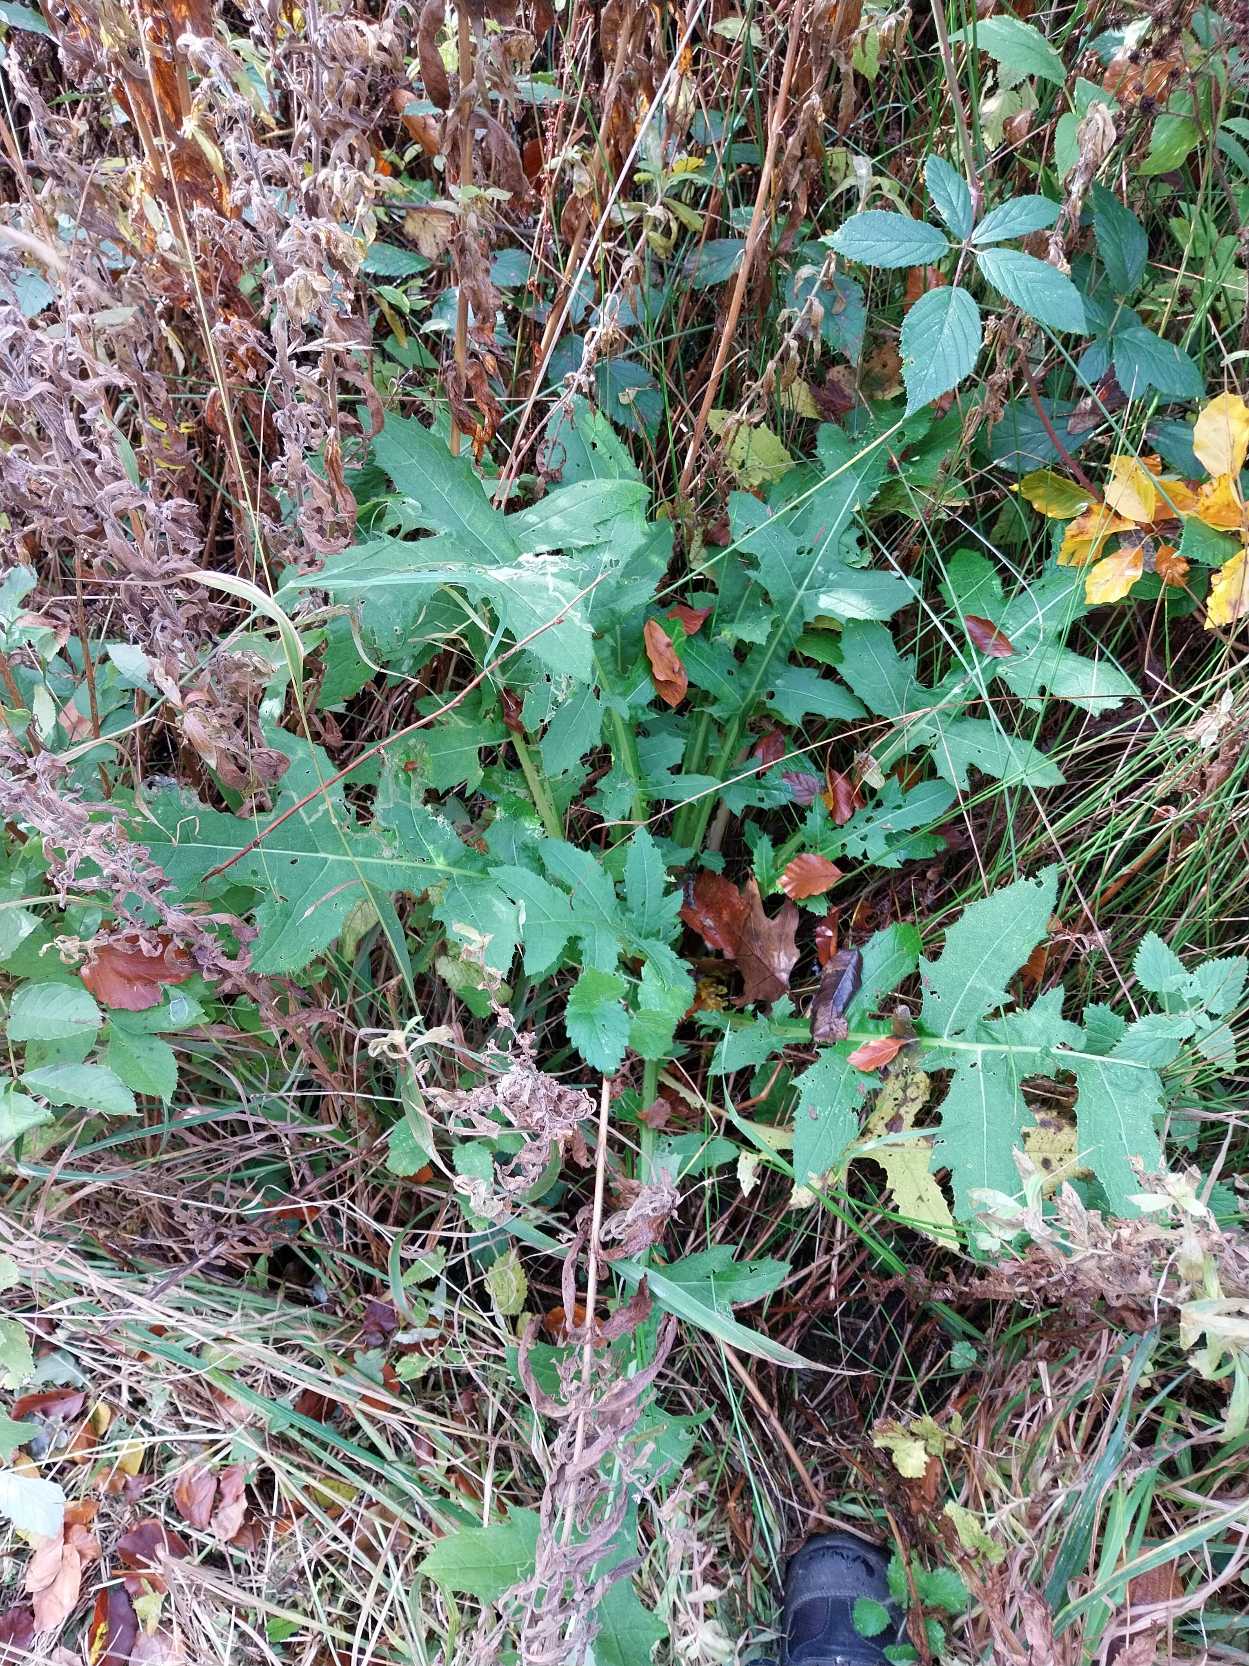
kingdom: Plantae
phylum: Tracheophyta
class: Magnoliopsida
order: Asterales
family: Asteraceae
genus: Cirsium
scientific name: Cirsium oleraceum
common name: Kål-tidsel
